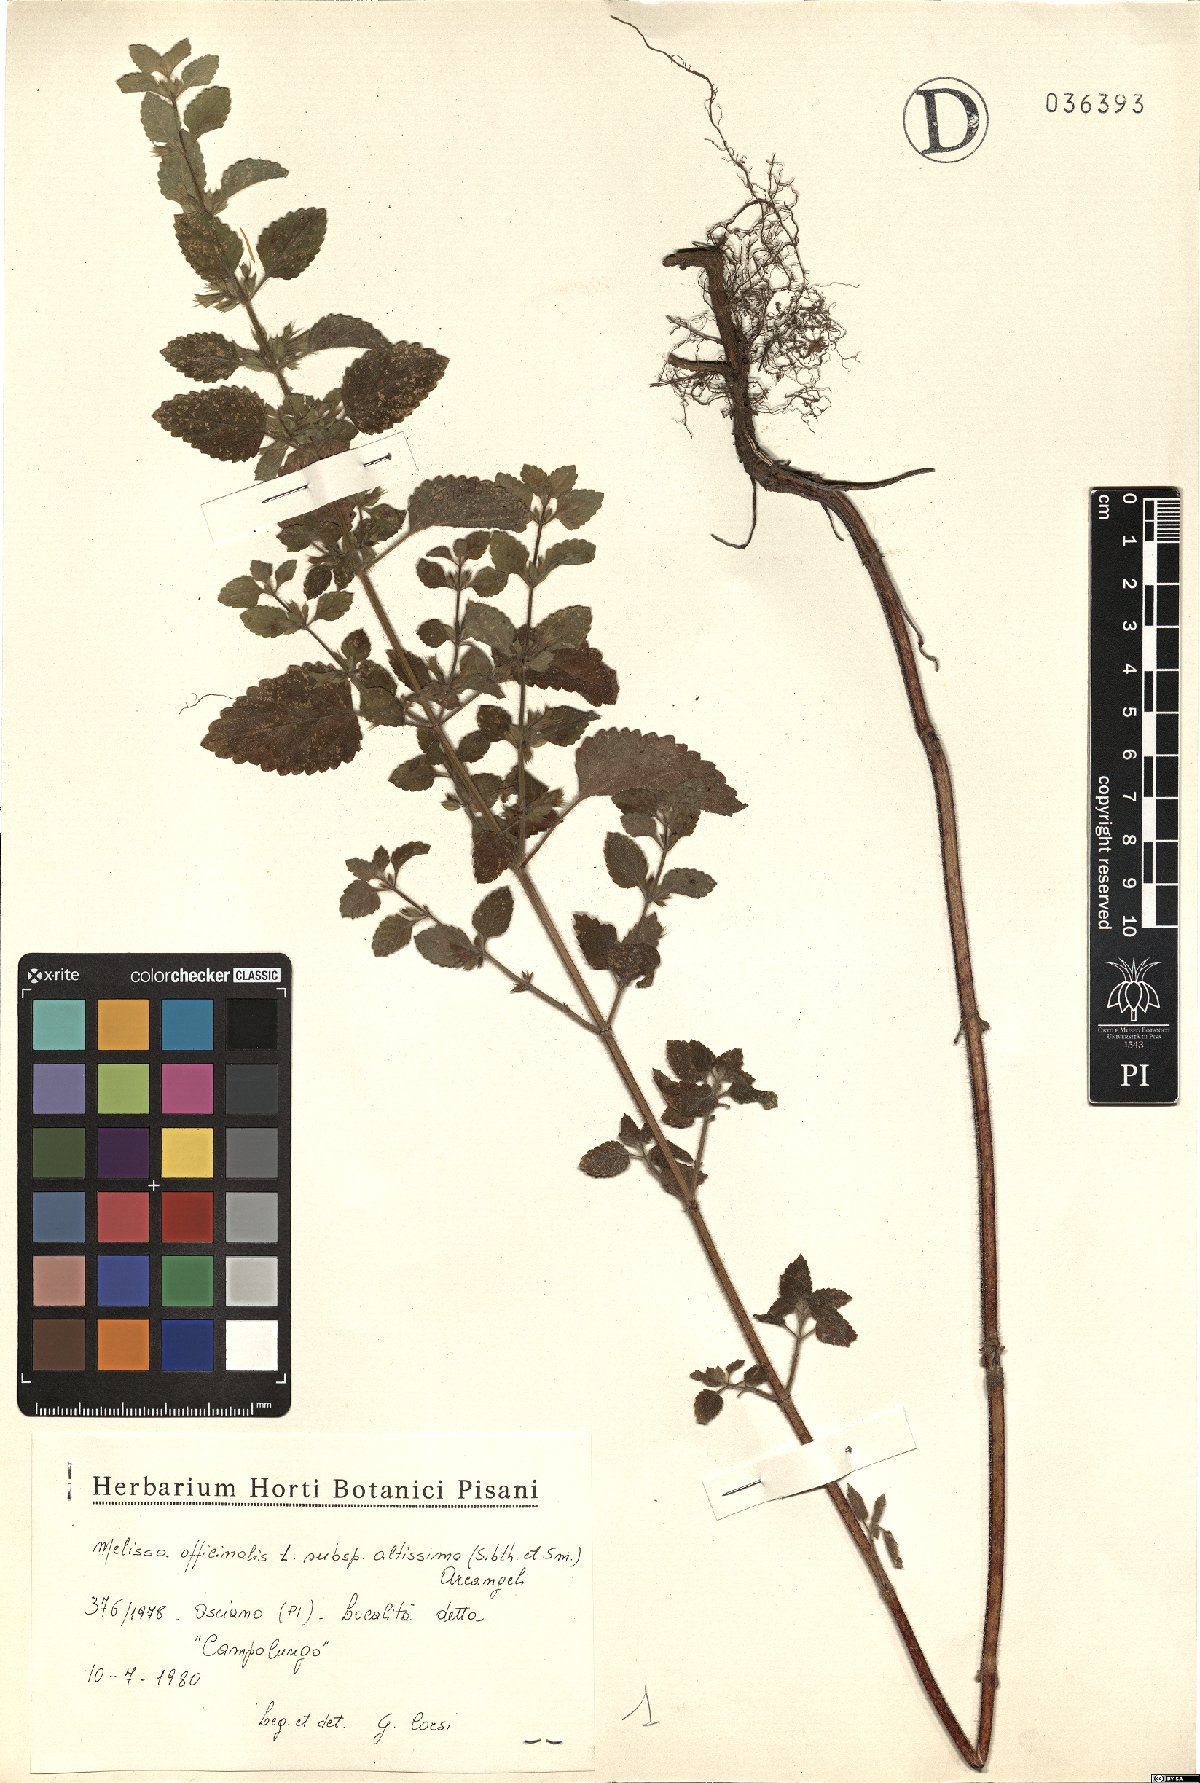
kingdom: Plantae
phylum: Tracheophyta
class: Magnoliopsida
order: Lamiales
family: Lamiaceae
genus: Melissa
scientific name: Melissa officinalis
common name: Balm
